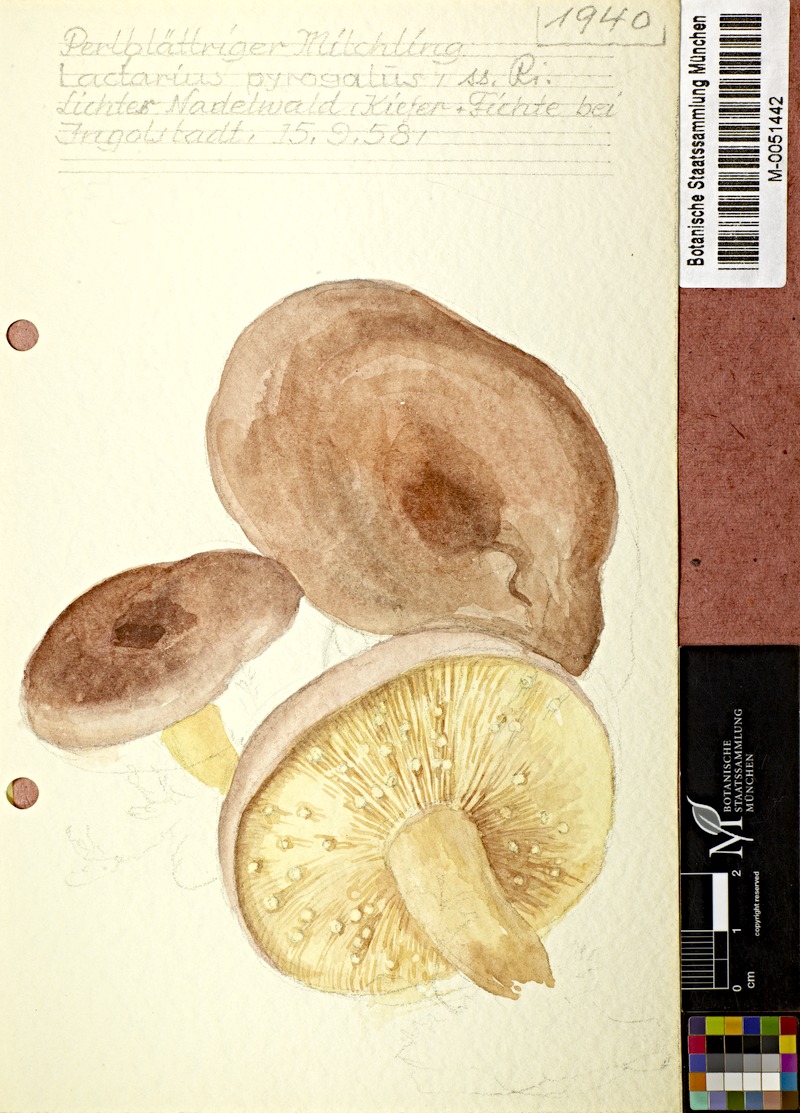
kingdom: Fungi
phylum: Basidiomycota
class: Agaricomycetes
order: Russulales
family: Russulaceae
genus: Lactarius
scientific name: Lactarius pyrogalus
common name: Fiery milkcap
